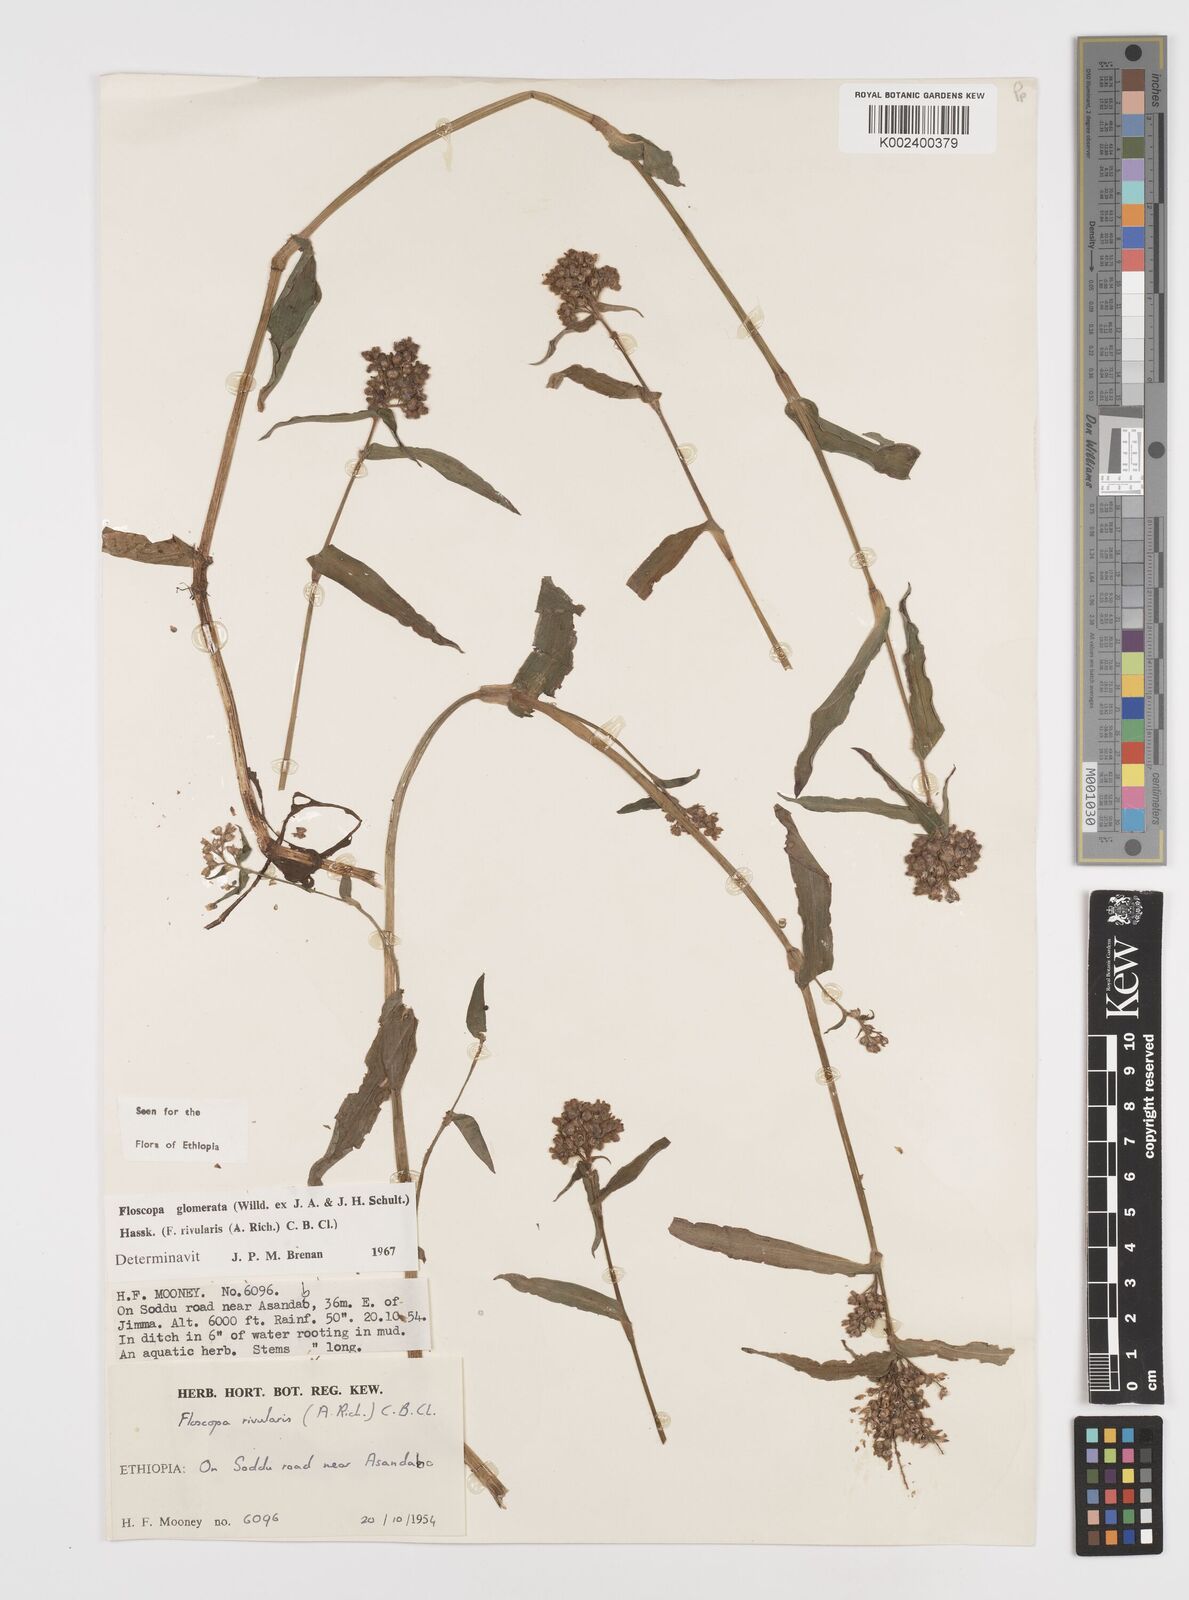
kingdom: Plantae
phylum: Tracheophyta
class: Liliopsida
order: Commelinales
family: Commelinaceae
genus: Floscopa
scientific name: Floscopa glomerata
